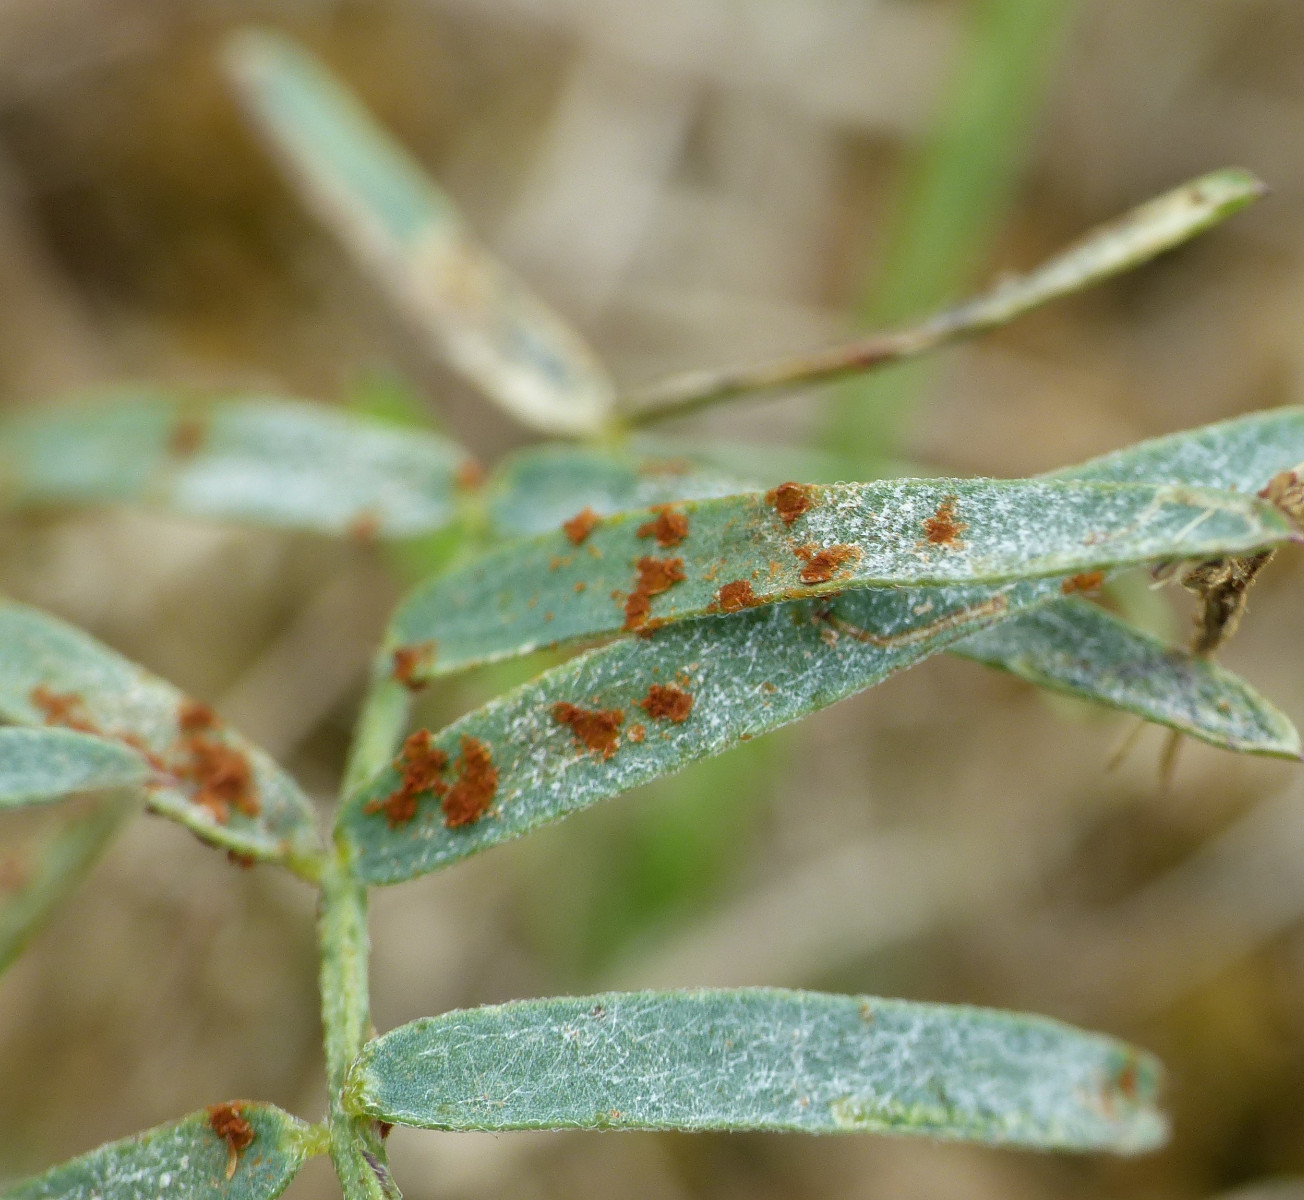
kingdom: Fungi
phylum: Basidiomycota
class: Pucciniomycetes
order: Pucciniales
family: Pucciniaceae
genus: Uromyces
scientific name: Uromyces viciae-fabae
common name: Broad bean rust
